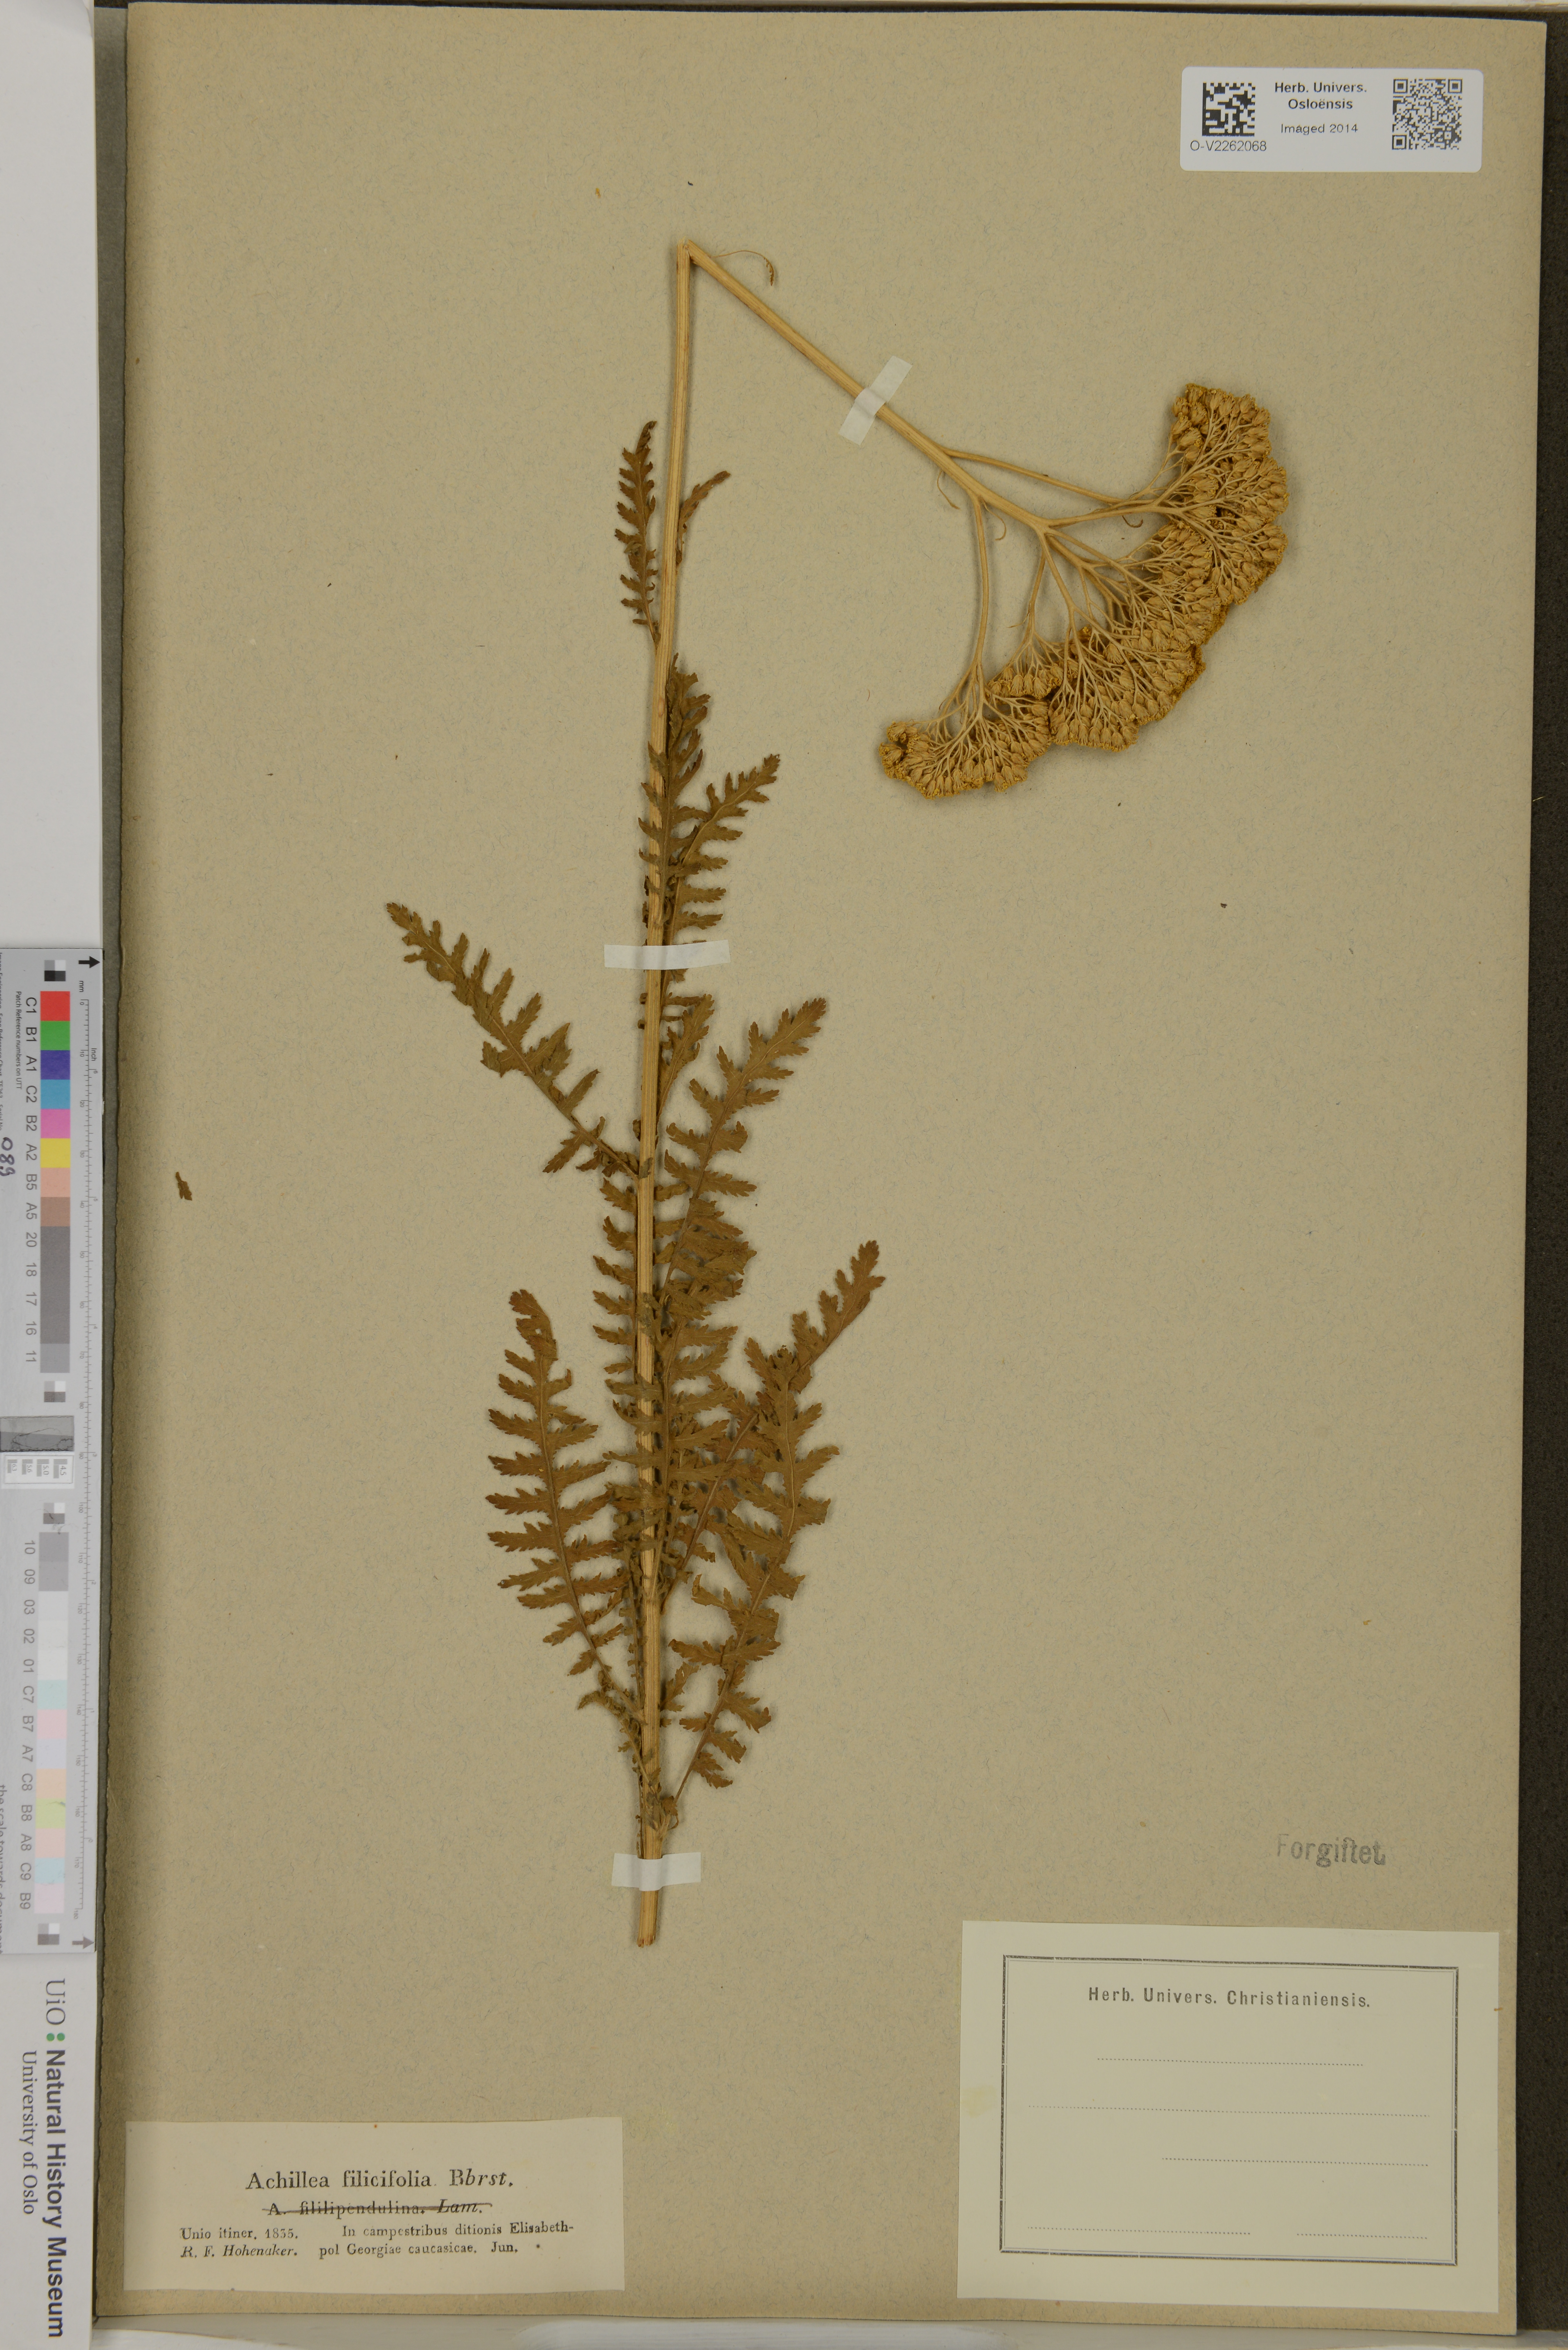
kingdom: Plantae
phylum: Tracheophyta
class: Magnoliopsida
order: Asterales
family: Asteraceae
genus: Achillea
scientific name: Achillea filipendulina
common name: Fernleaf yarrow
